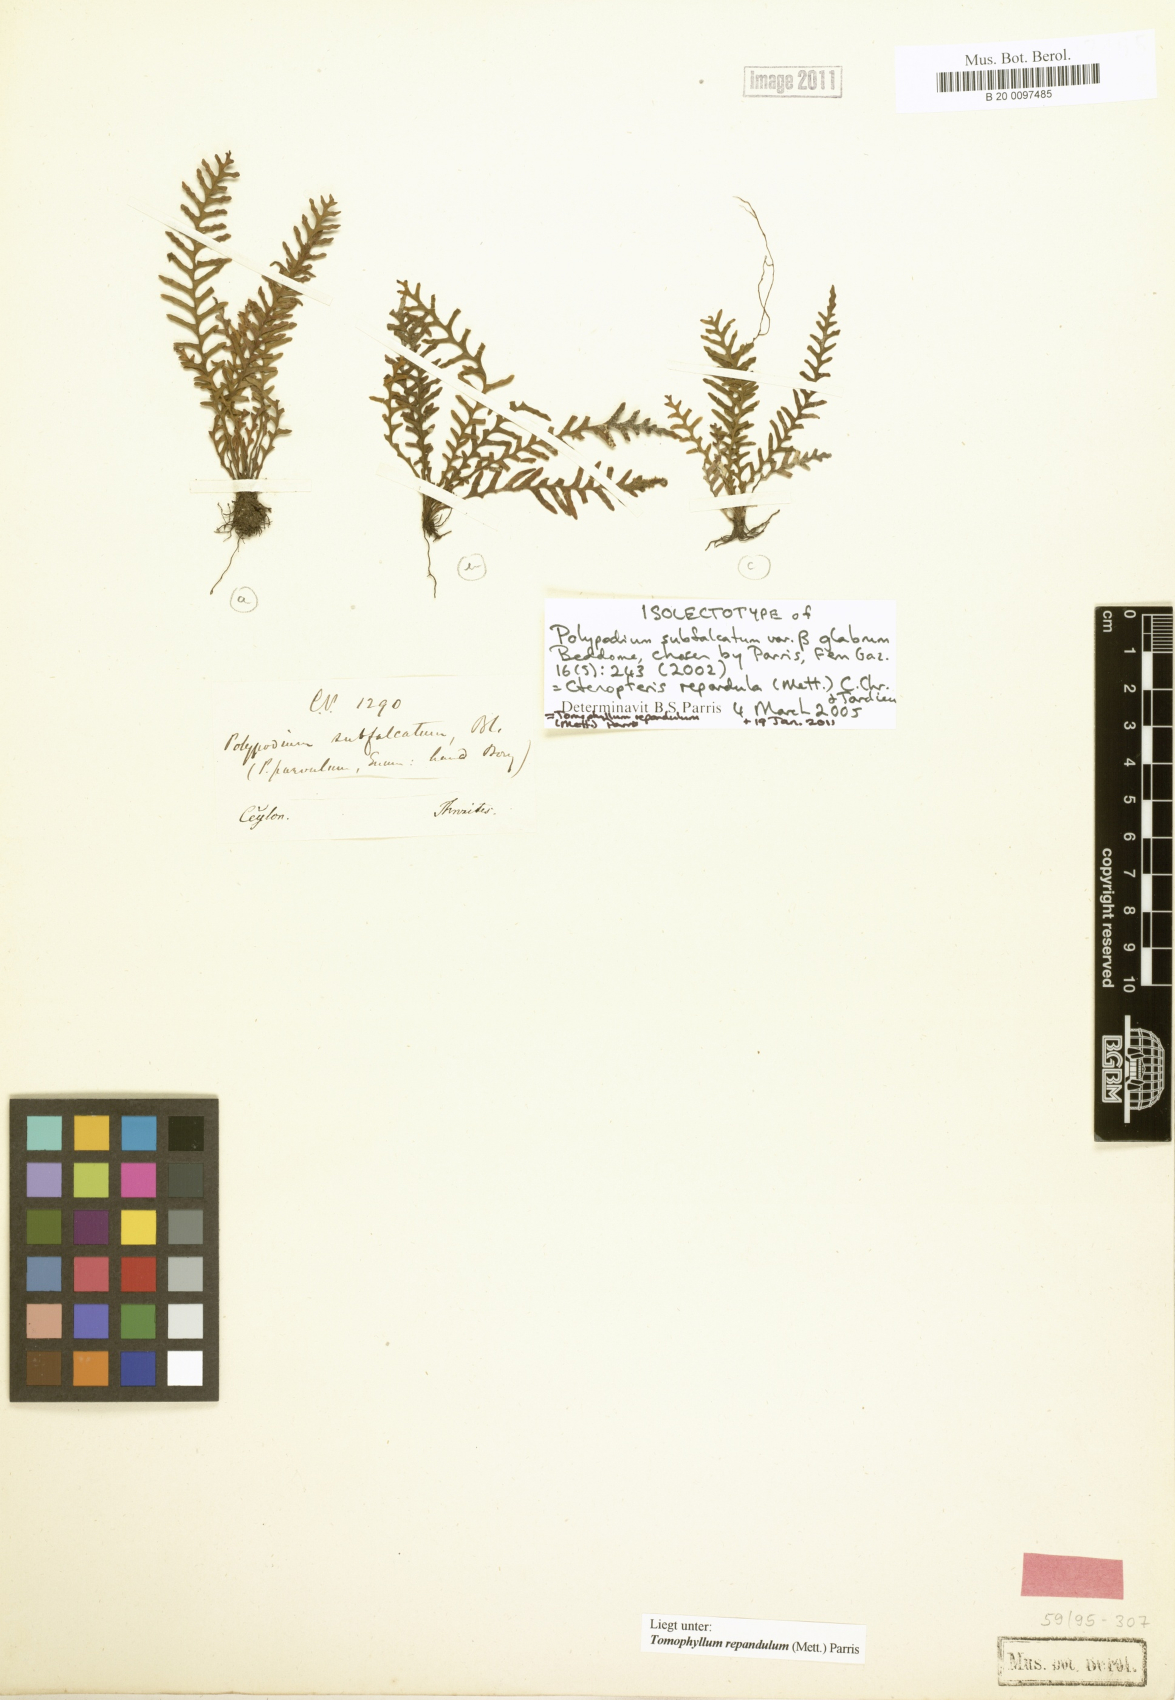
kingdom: Plantae
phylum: Tracheophyta
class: Polypodiopsida
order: Polypodiales
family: Polypodiaceae
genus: Tomophyllum
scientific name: Tomophyllum repandulum
